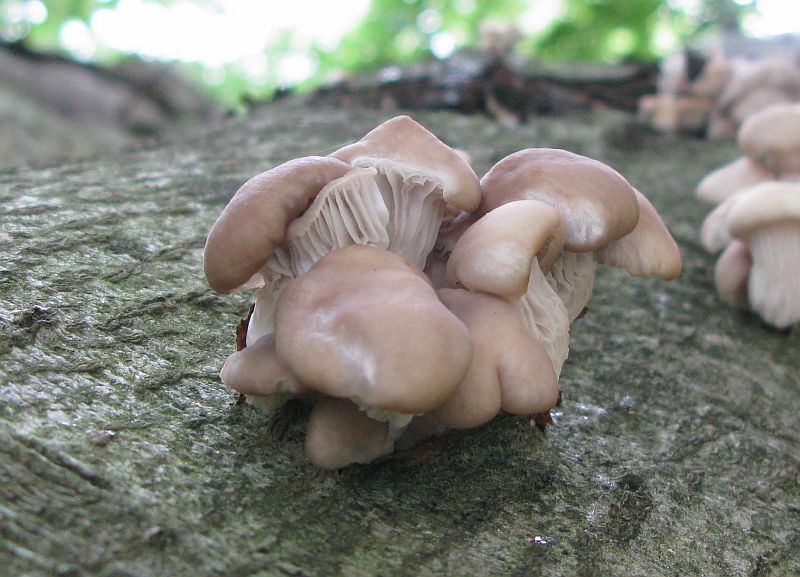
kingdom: Fungi
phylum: Basidiomycota
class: Agaricomycetes
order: Agaricales
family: Pleurotaceae
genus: Pleurotus
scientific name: Pleurotus pulmonarius
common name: sommer-østershat
